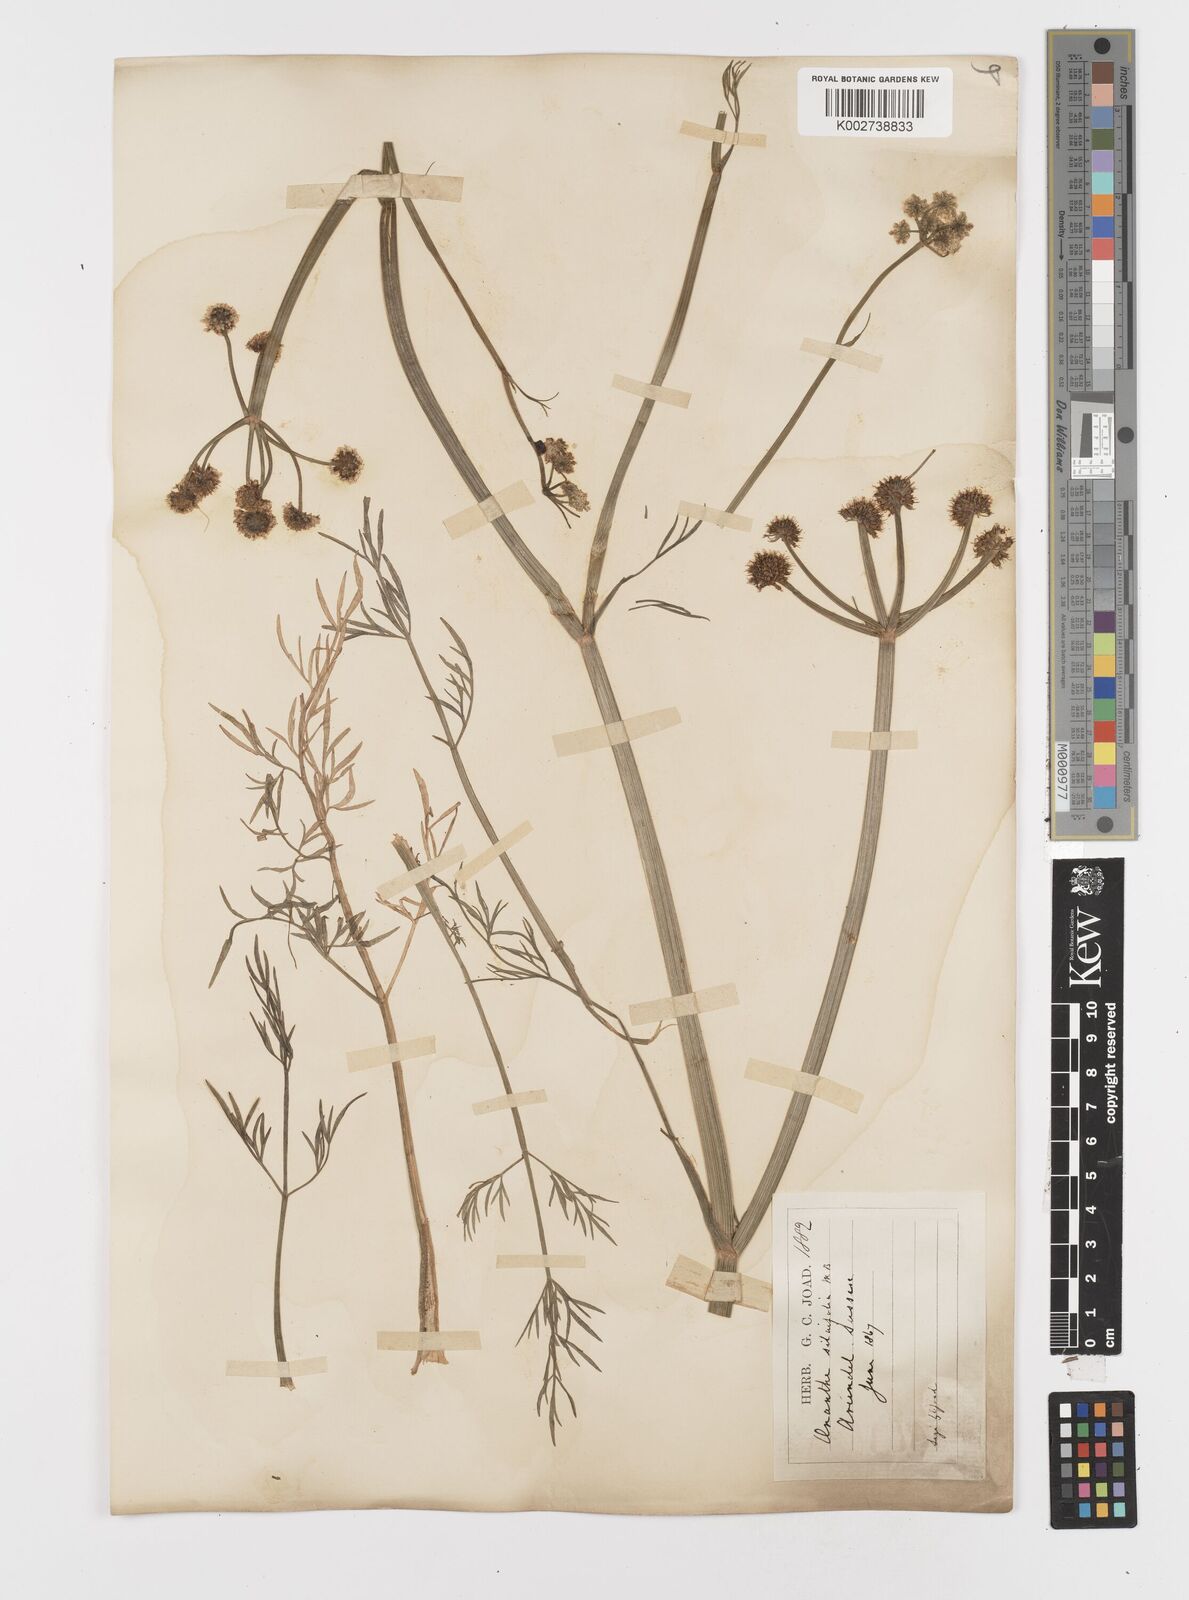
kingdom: Plantae
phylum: Tracheophyta
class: Magnoliopsida
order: Apiales
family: Apiaceae
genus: Oenanthe
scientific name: Oenanthe silaifolia
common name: Narrow-leaved water-dropwort
